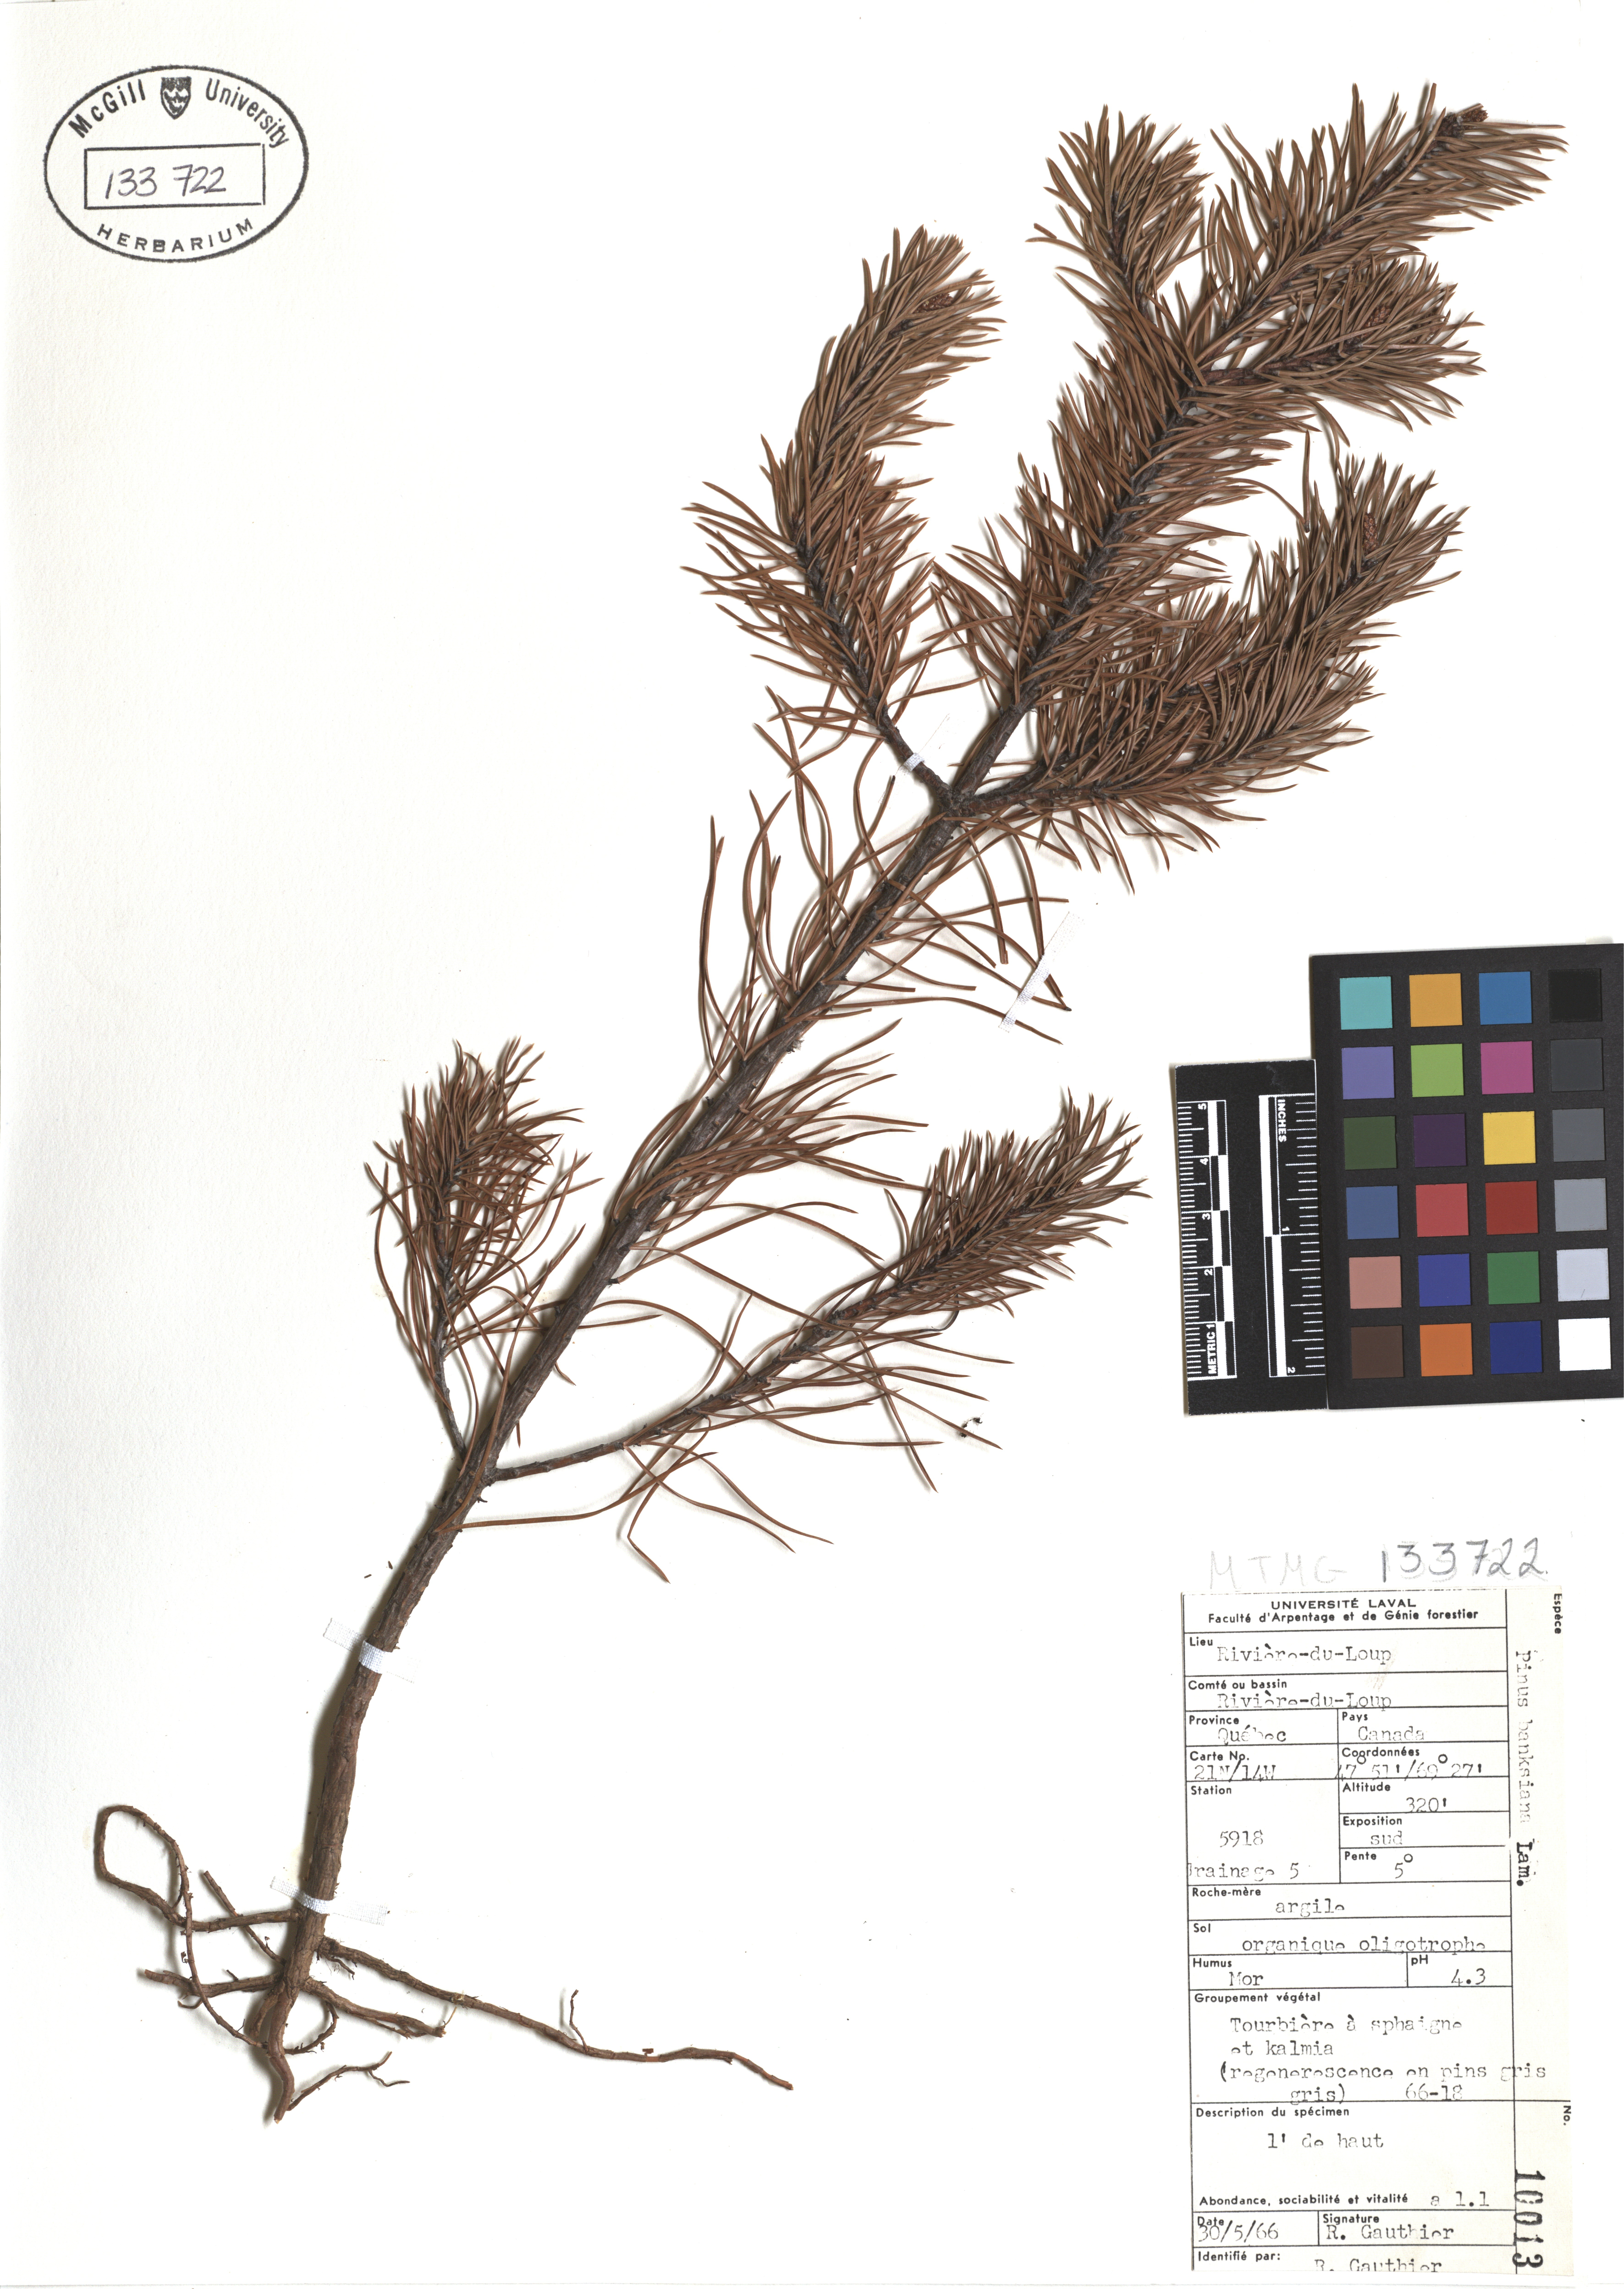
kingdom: Plantae
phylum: Tracheophyta
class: Pinopsida
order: Pinales
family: Pinaceae
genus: Pinus
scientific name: Pinus banksiana
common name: Jack pine
